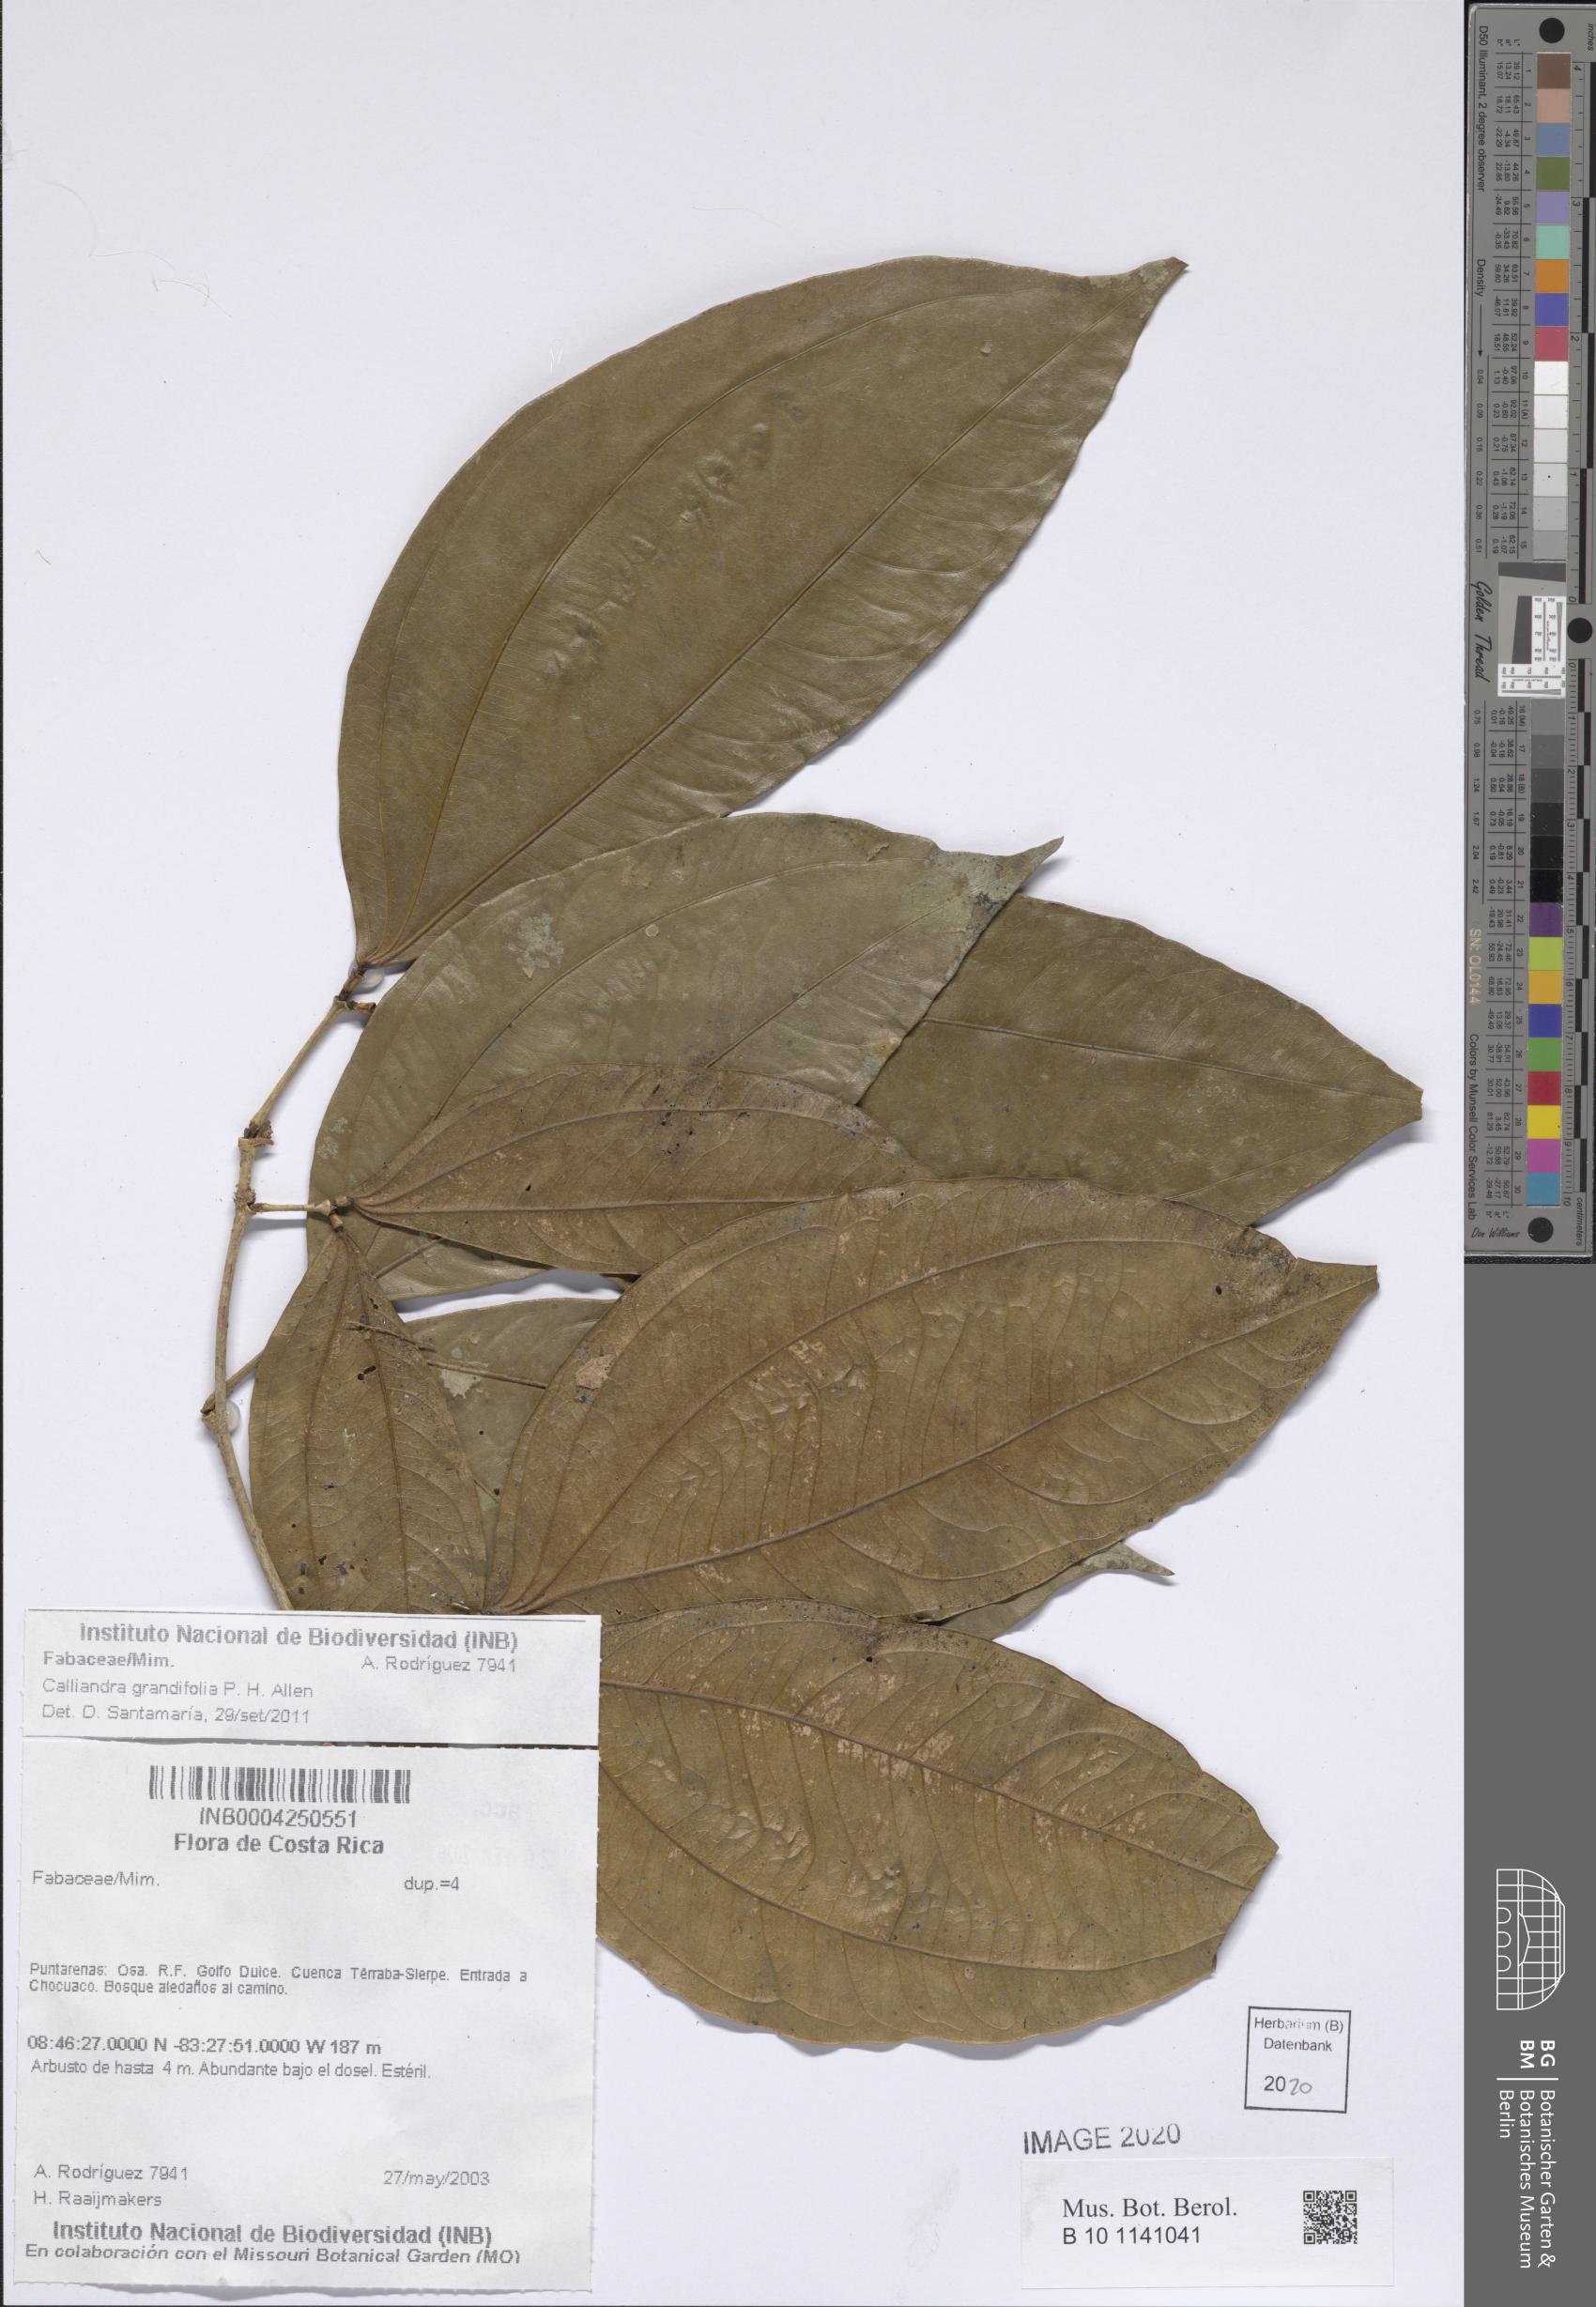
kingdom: Plantae
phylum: Tracheophyta
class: Magnoliopsida
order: Fabales
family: Fabaceae
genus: Calliandra
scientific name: Calliandra grandifolia
